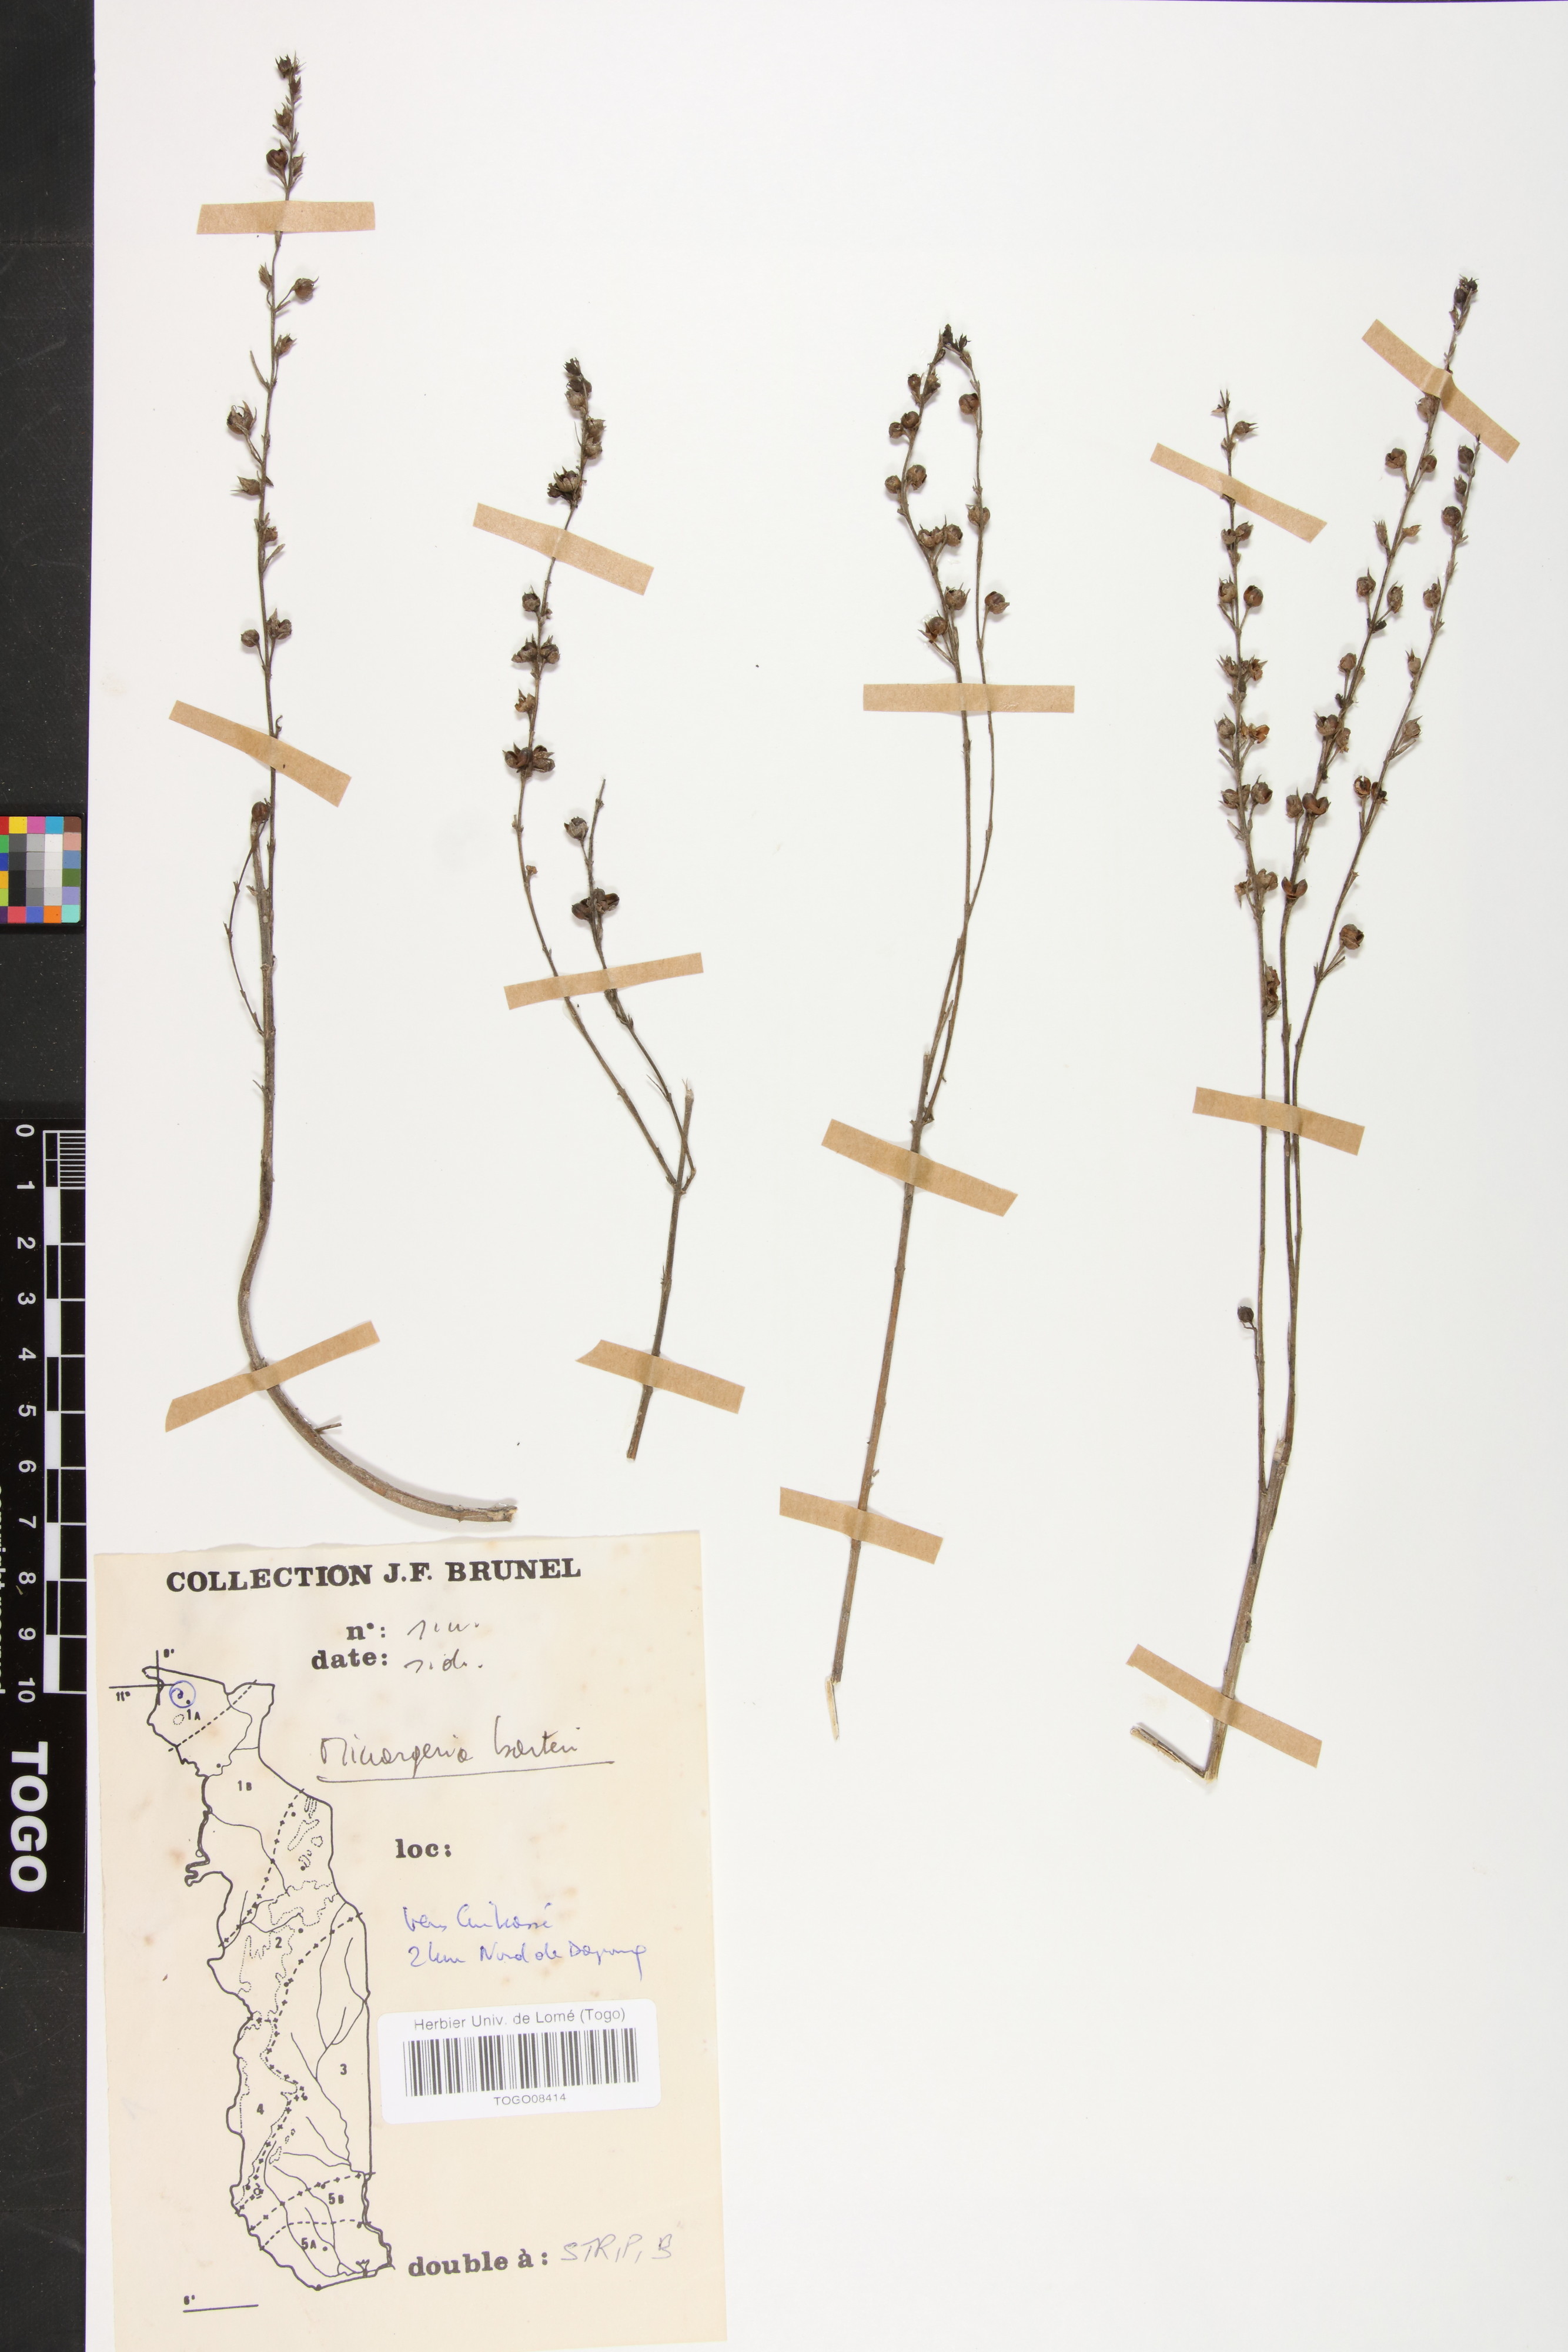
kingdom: Plantae
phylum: Tracheophyta
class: Magnoliopsida
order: Lamiales
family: Orobanchaceae
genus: Micrargeria
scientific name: Micrargeria filiformis
